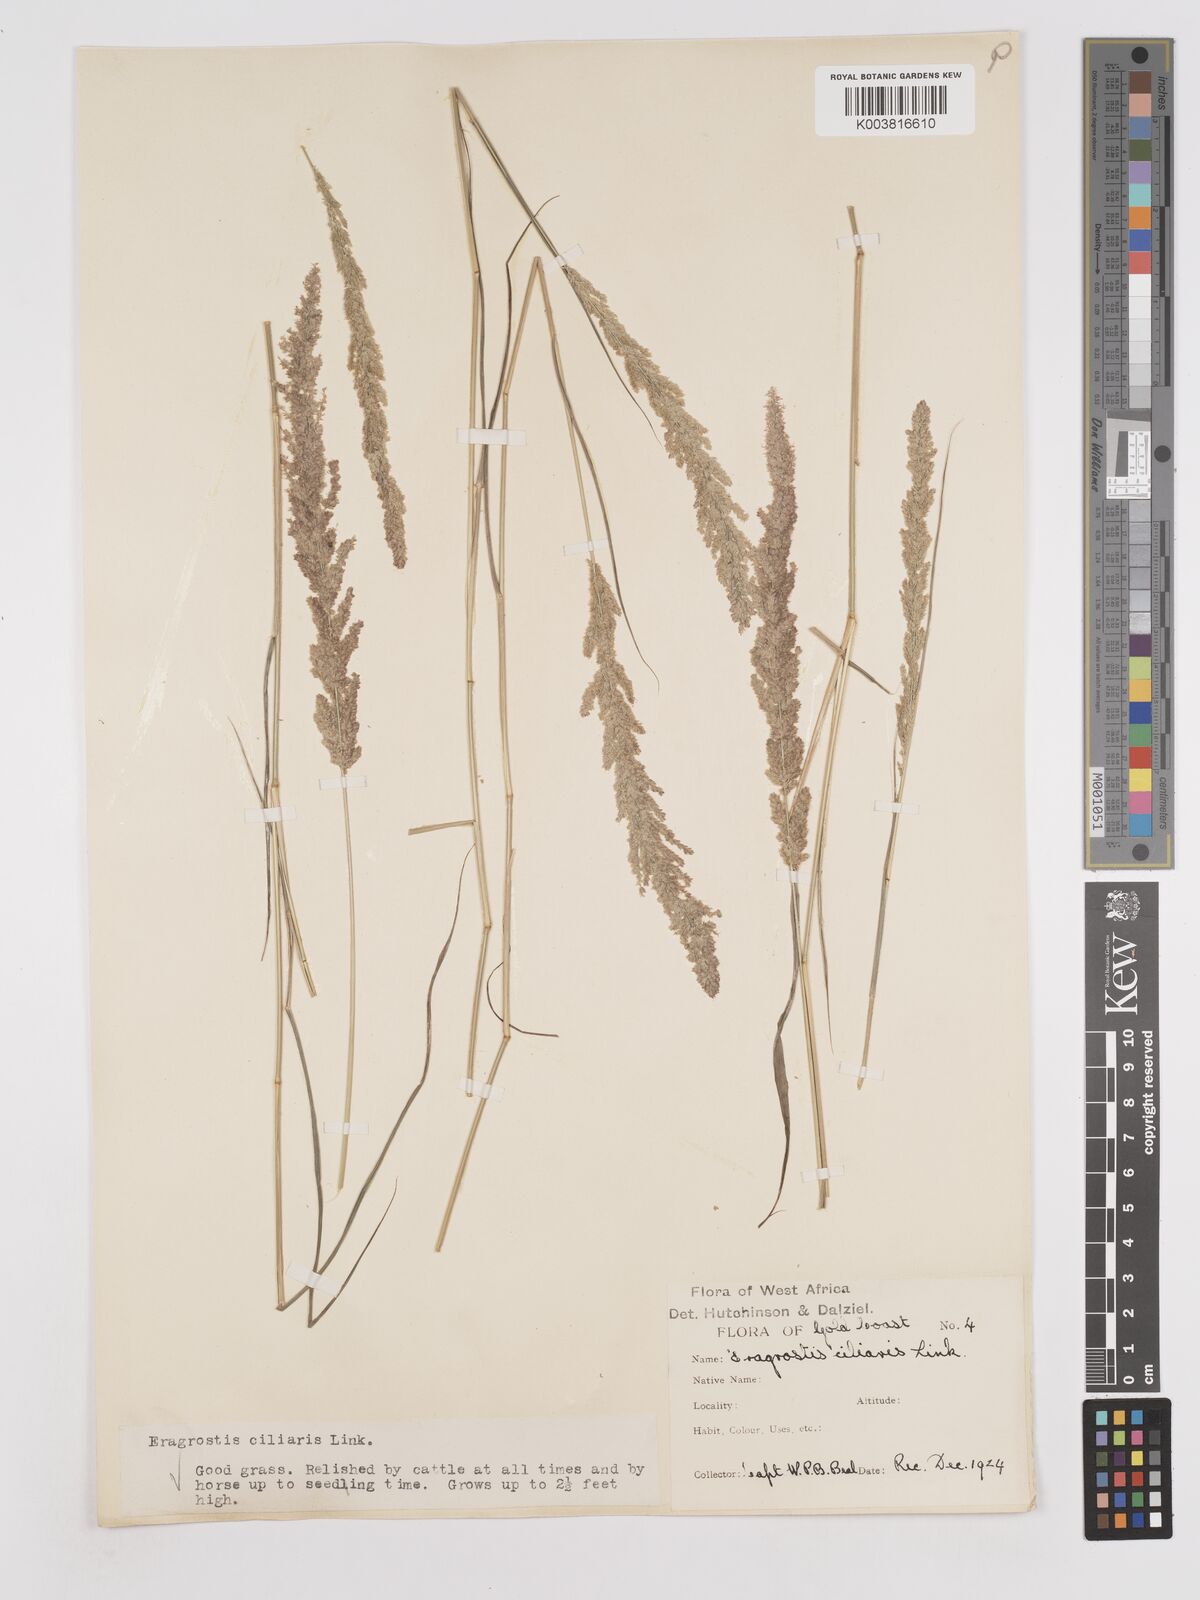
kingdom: Plantae
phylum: Tracheophyta
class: Liliopsida
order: Poales
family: Poaceae
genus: Eragrostis
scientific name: Eragrostis ciliaris
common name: Gophertail lovegrass
